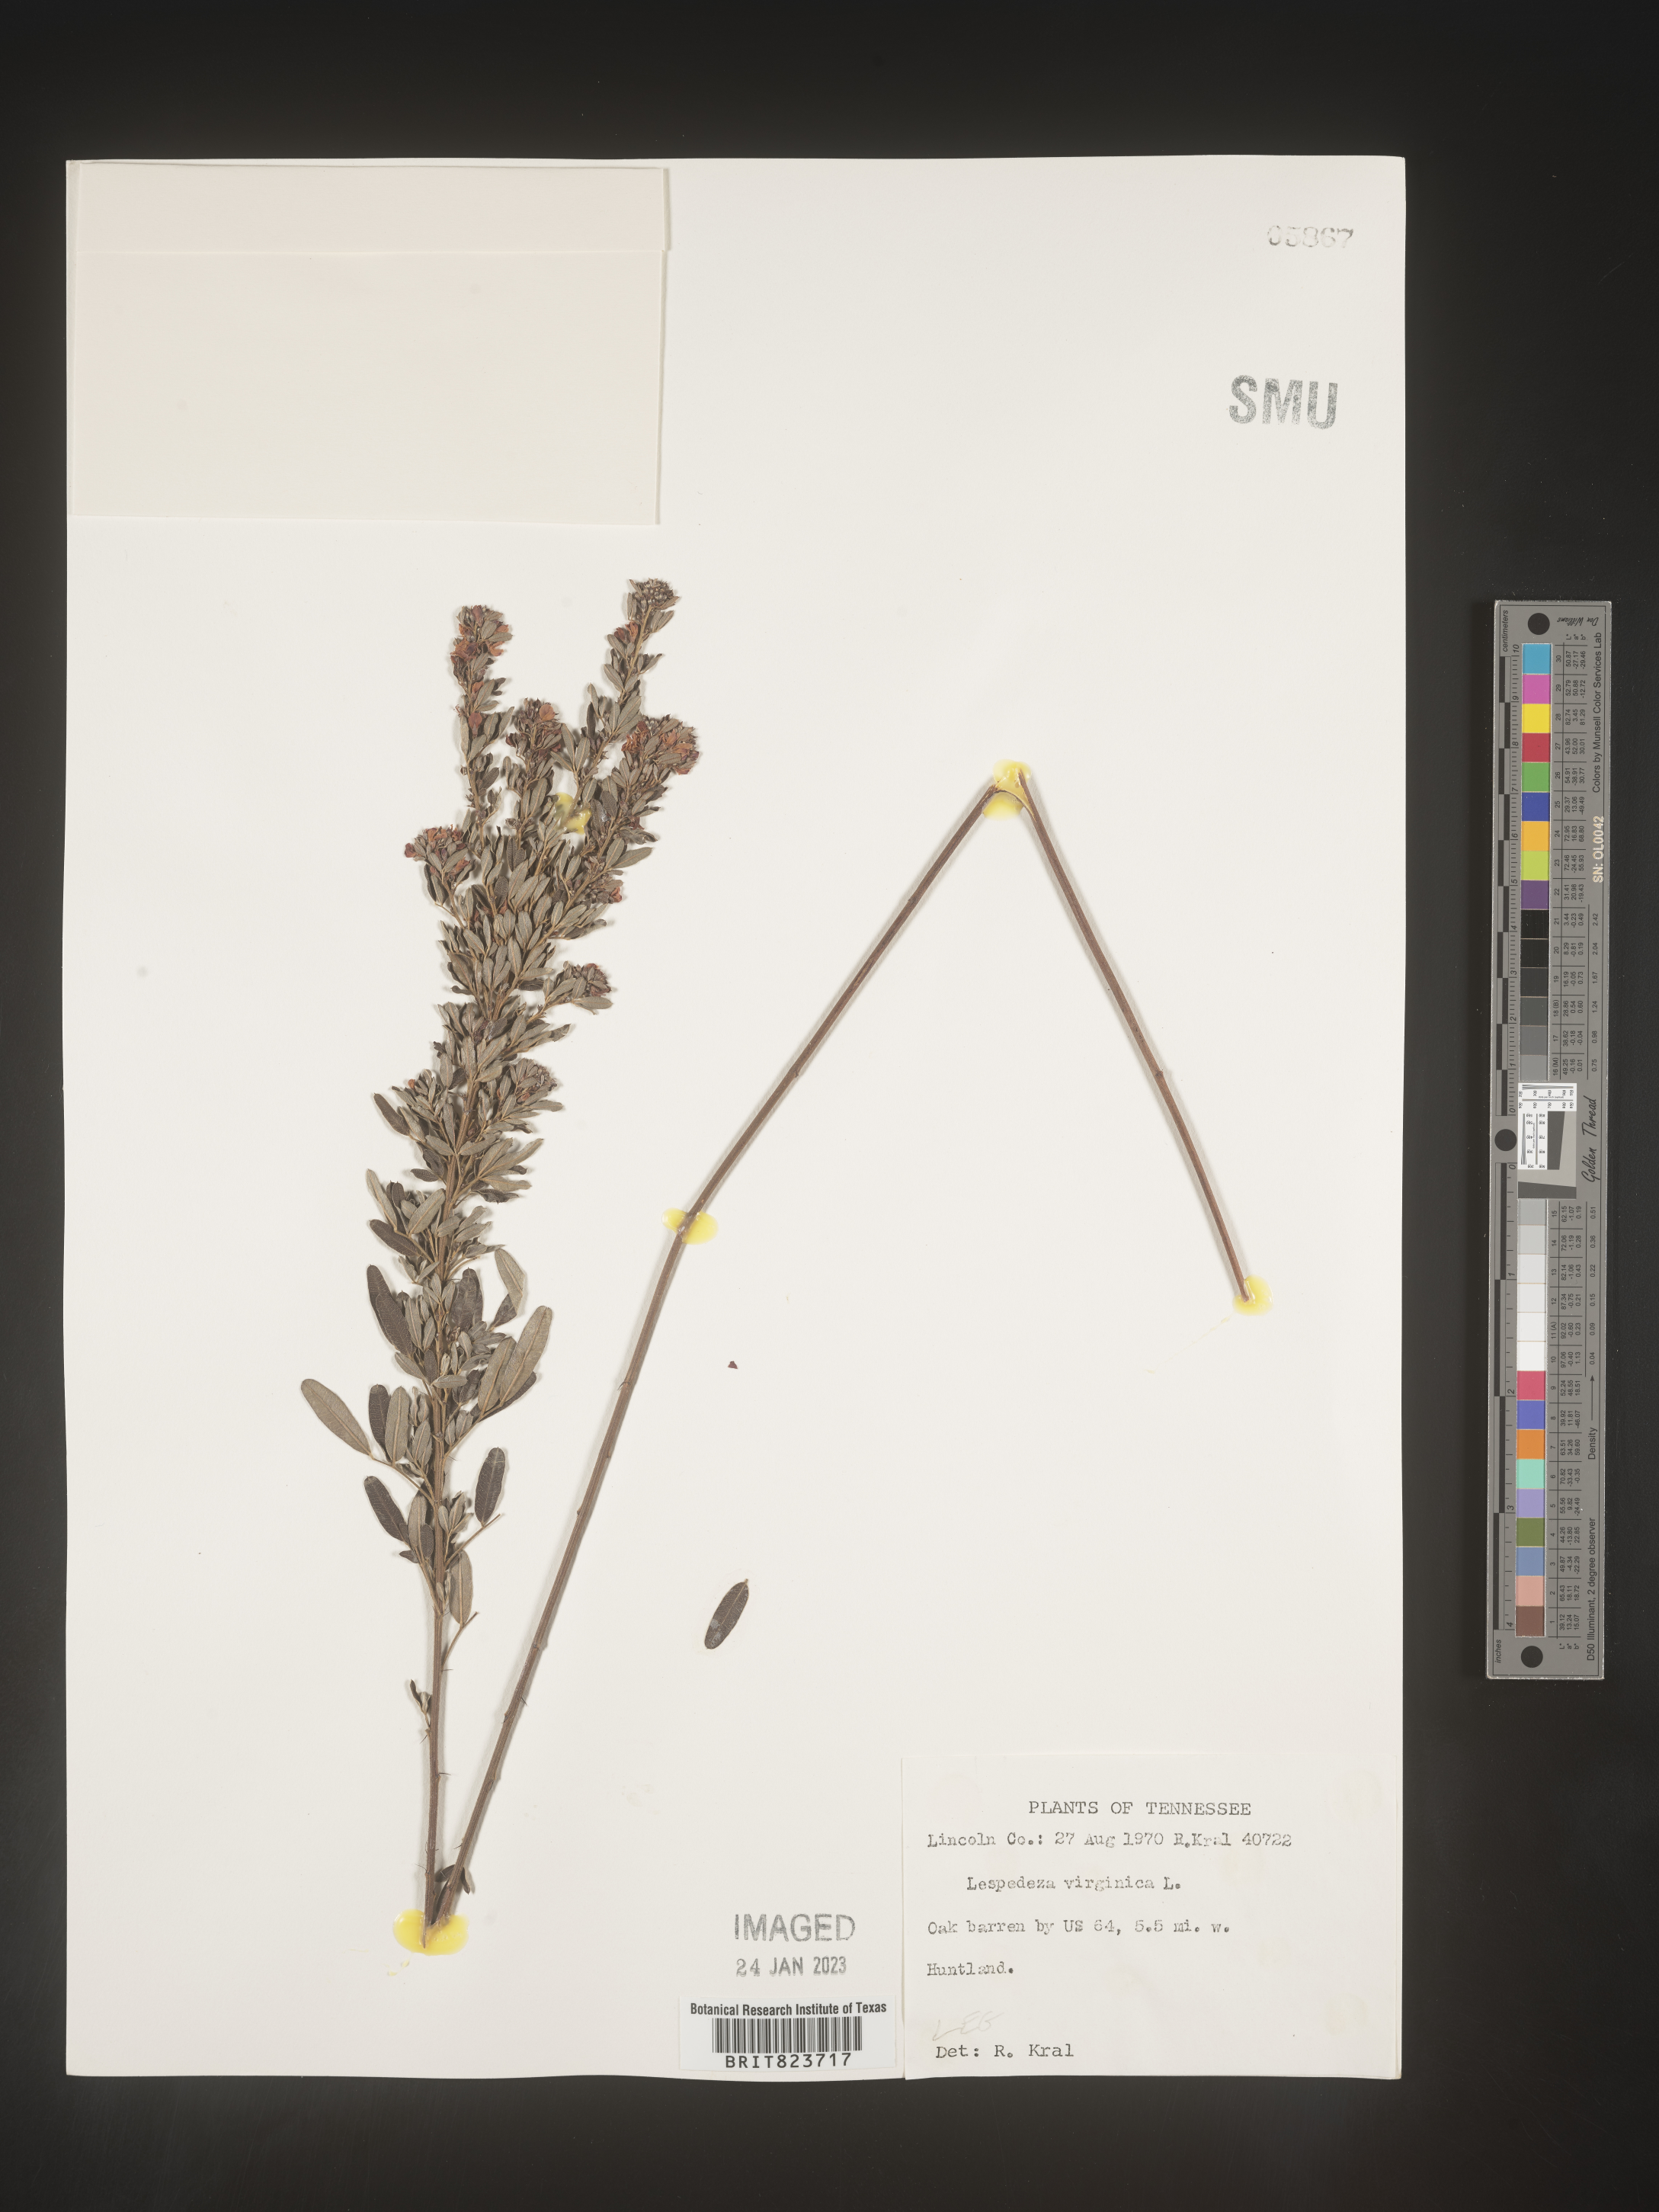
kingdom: Plantae
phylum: Tracheophyta
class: Magnoliopsida
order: Fabales
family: Fabaceae
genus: Lespedeza
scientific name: Lespedeza virginica
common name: Slender bush-clover
